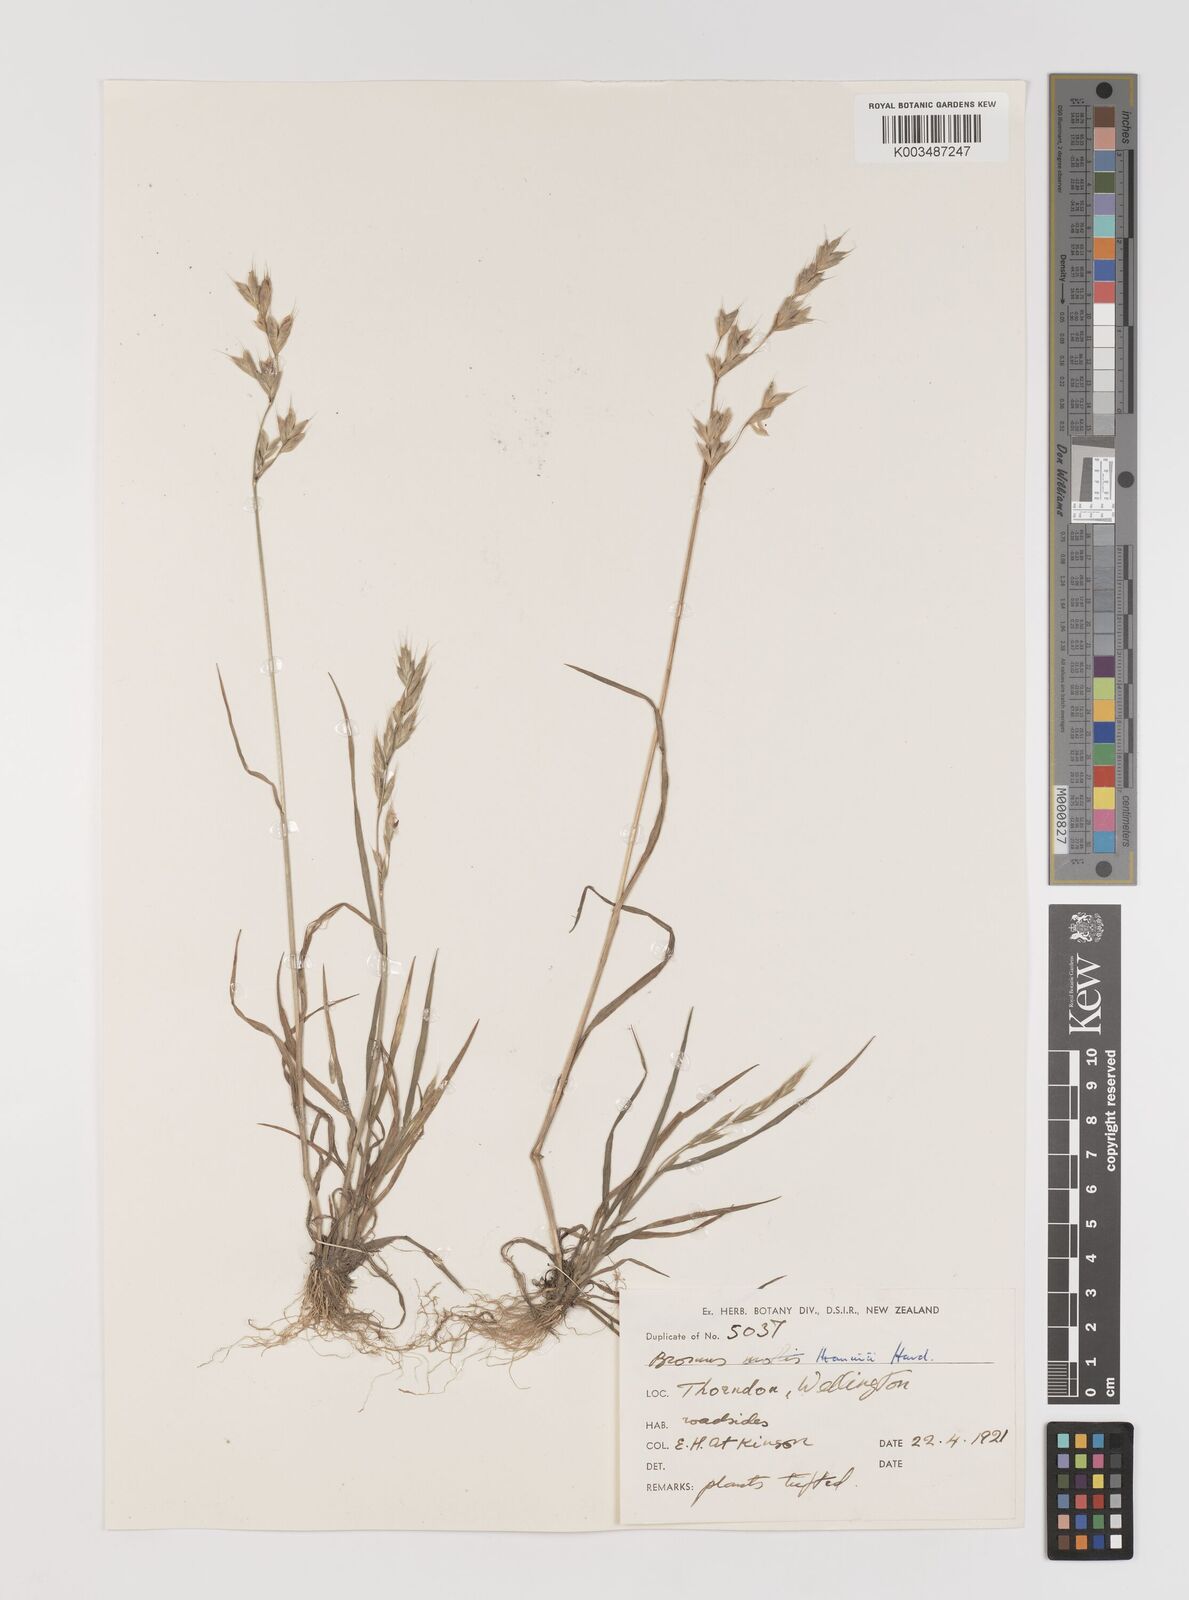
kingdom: Plantae
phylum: Tracheophyta
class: Liliopsida
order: Poales
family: Poaceae
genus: Bromus
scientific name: Bromus hordeaceus
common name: Soft brome
